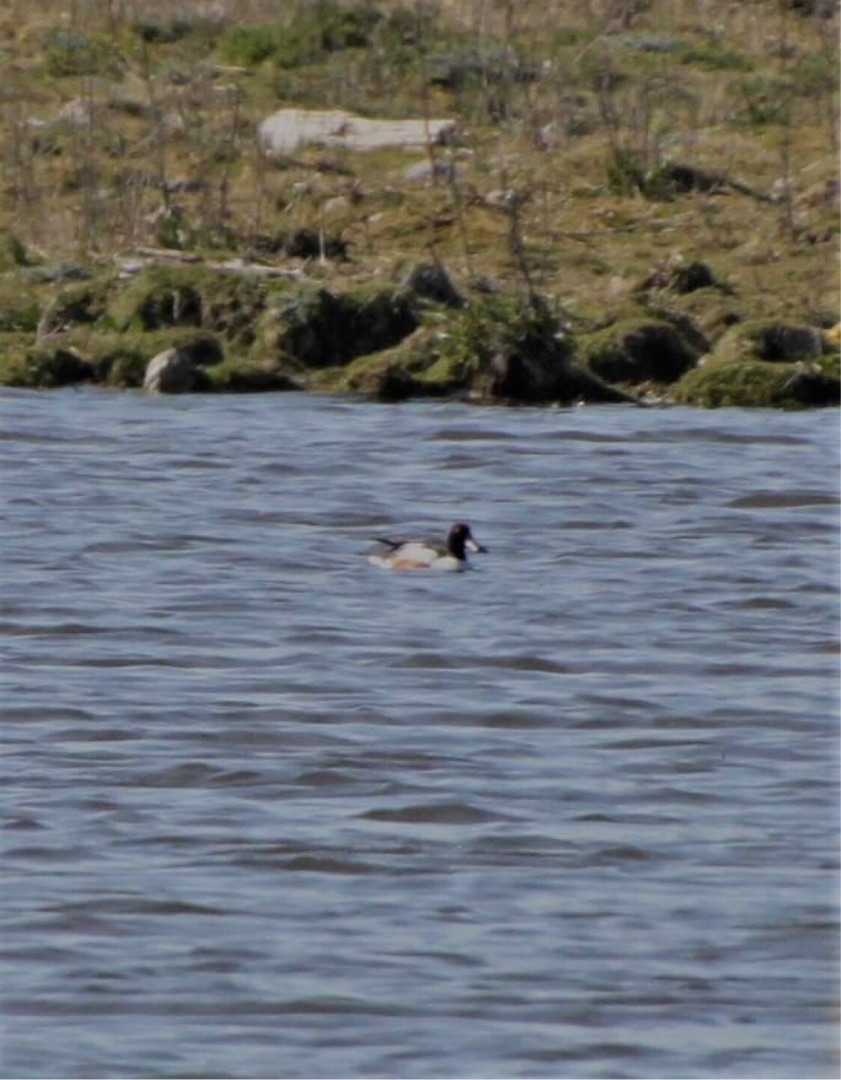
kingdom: Animalia
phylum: Chordata
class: Aves
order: Anseriformes
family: Anatidae
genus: Spatula
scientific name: Spatula clypeata
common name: Skeand
